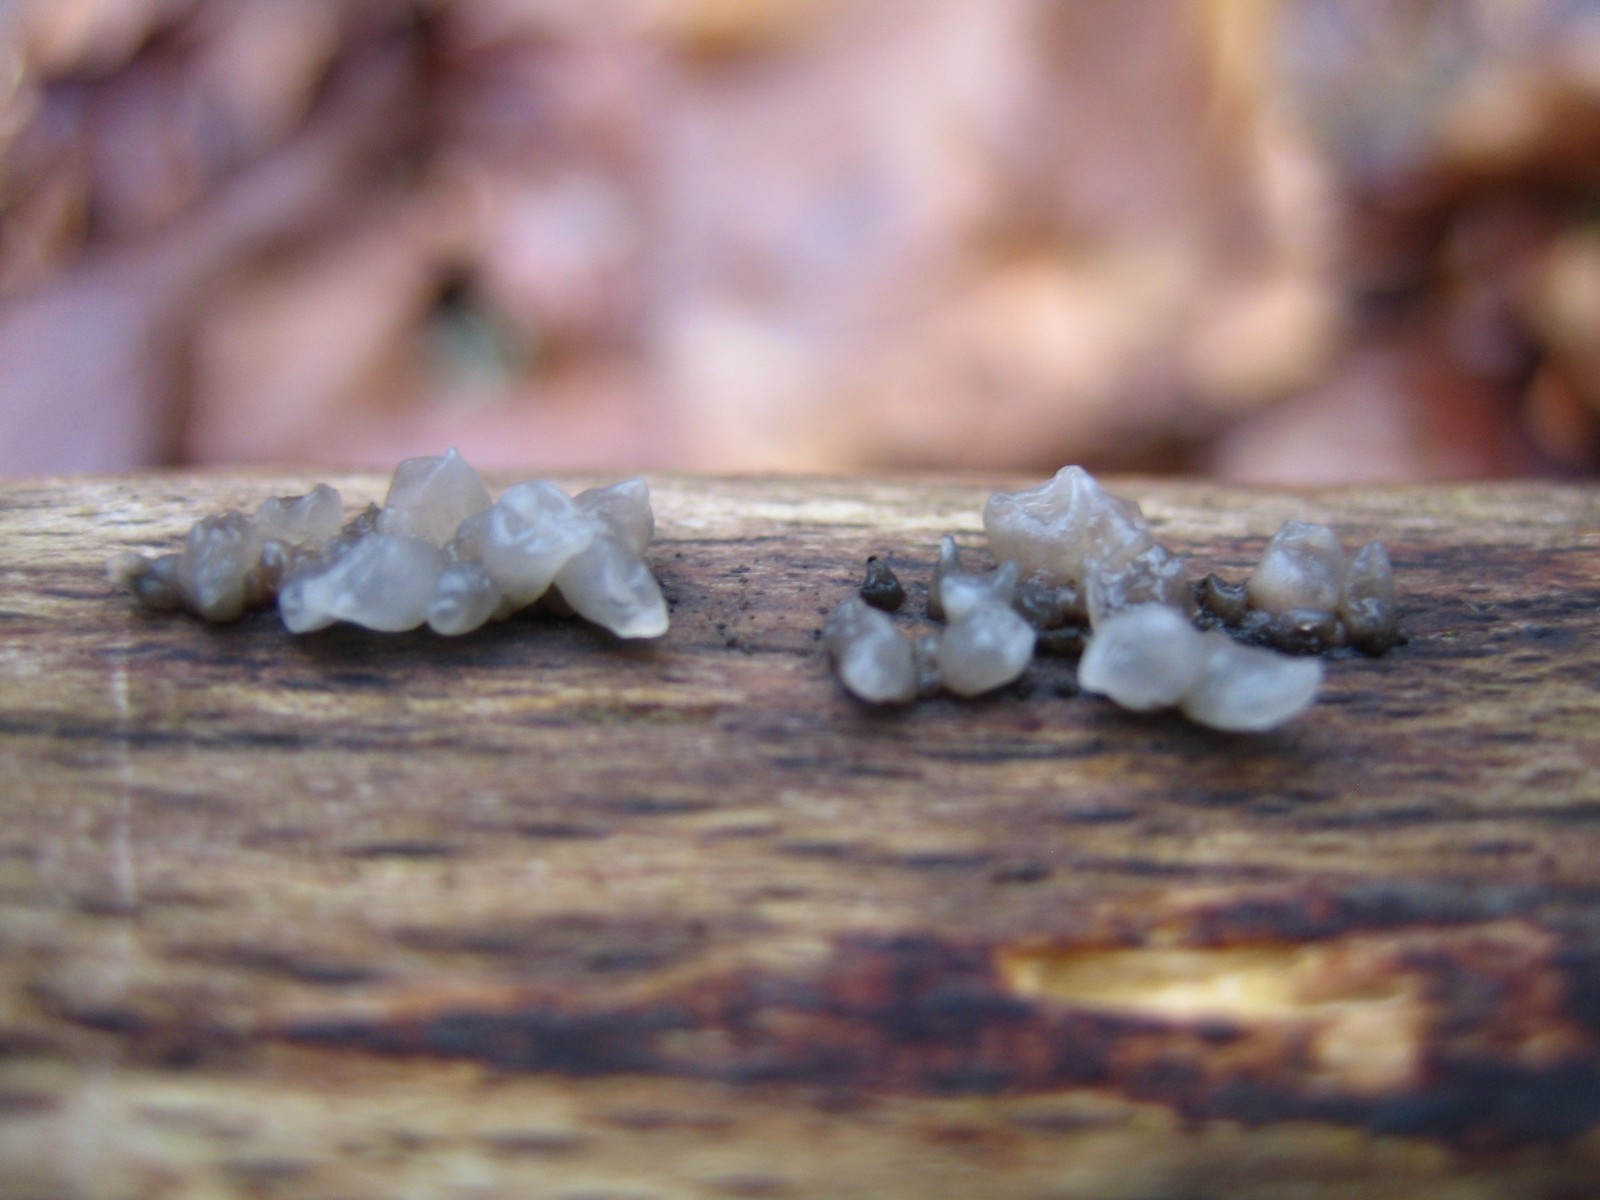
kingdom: Fungi
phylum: Basidiomycota
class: Agaricomycetes
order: Auriculariales
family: Hyaloriaceae
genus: Myxarium
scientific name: Myxarium nucleatum
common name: klar bævretop
